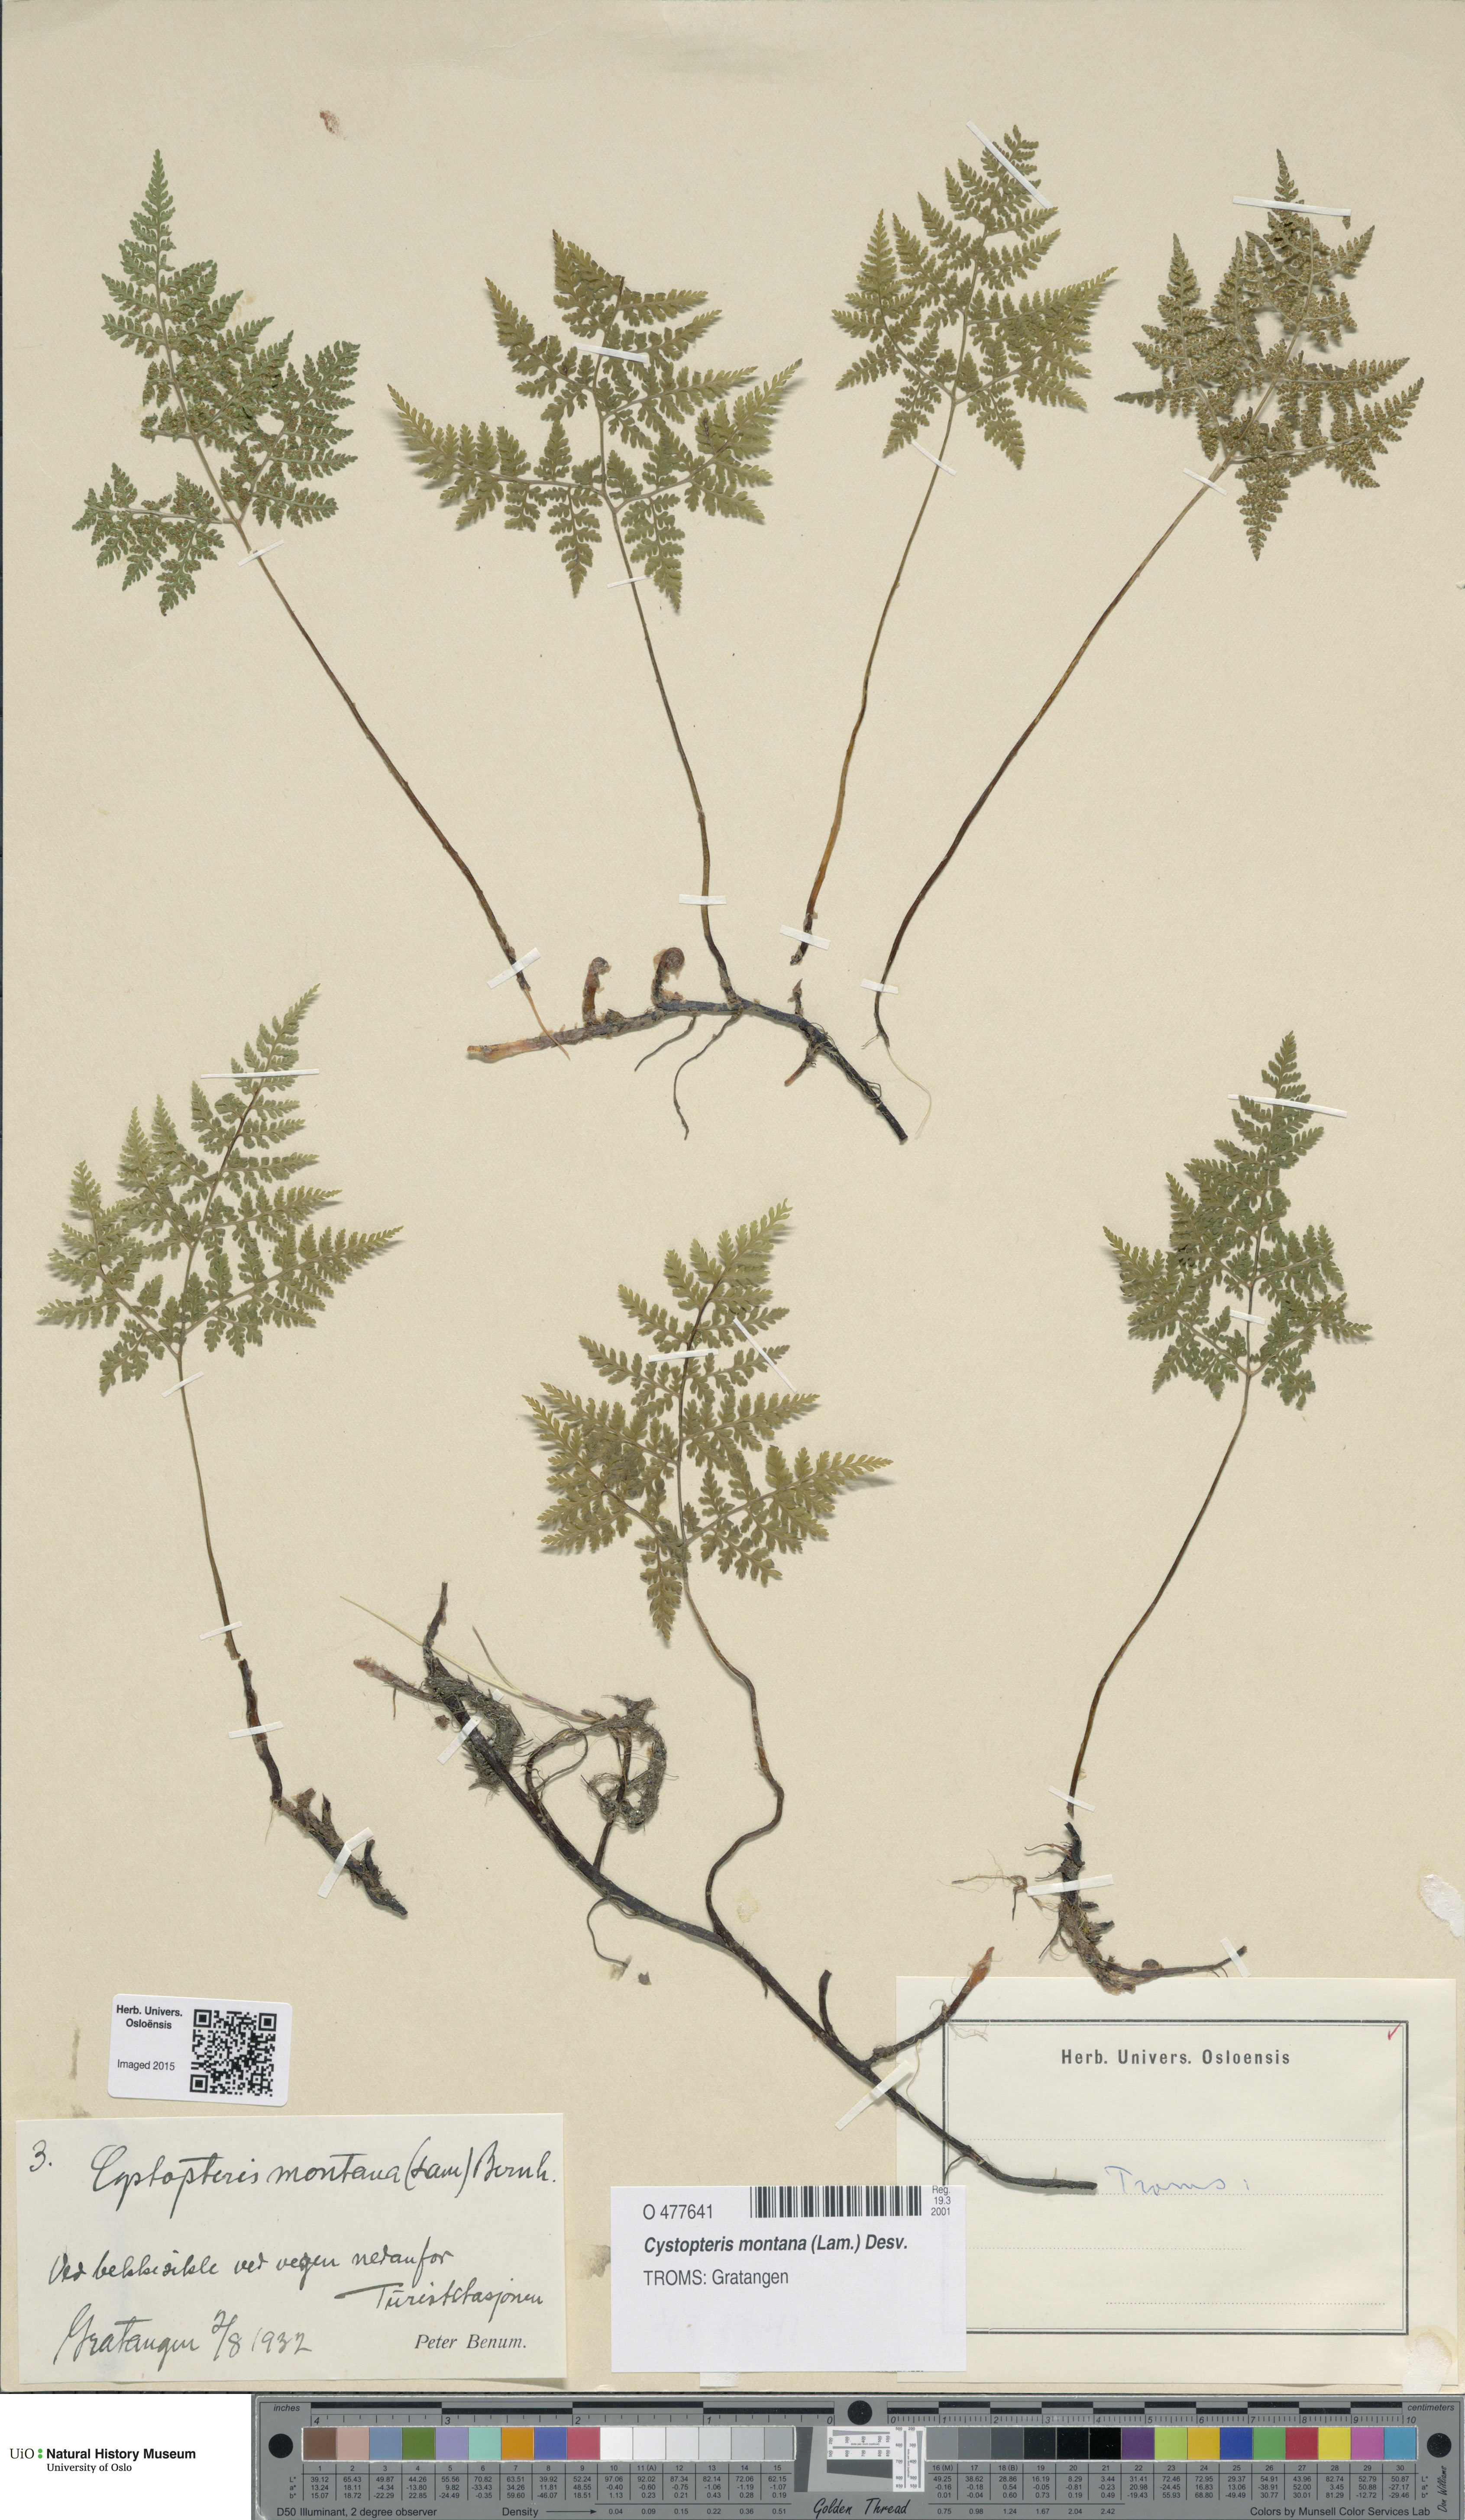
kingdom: Plantae
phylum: Tracheophyta
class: Polypodiopsida
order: Polypodiales
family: Cystopteridaceae
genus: Cystopteris
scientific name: Cystopteris montana
